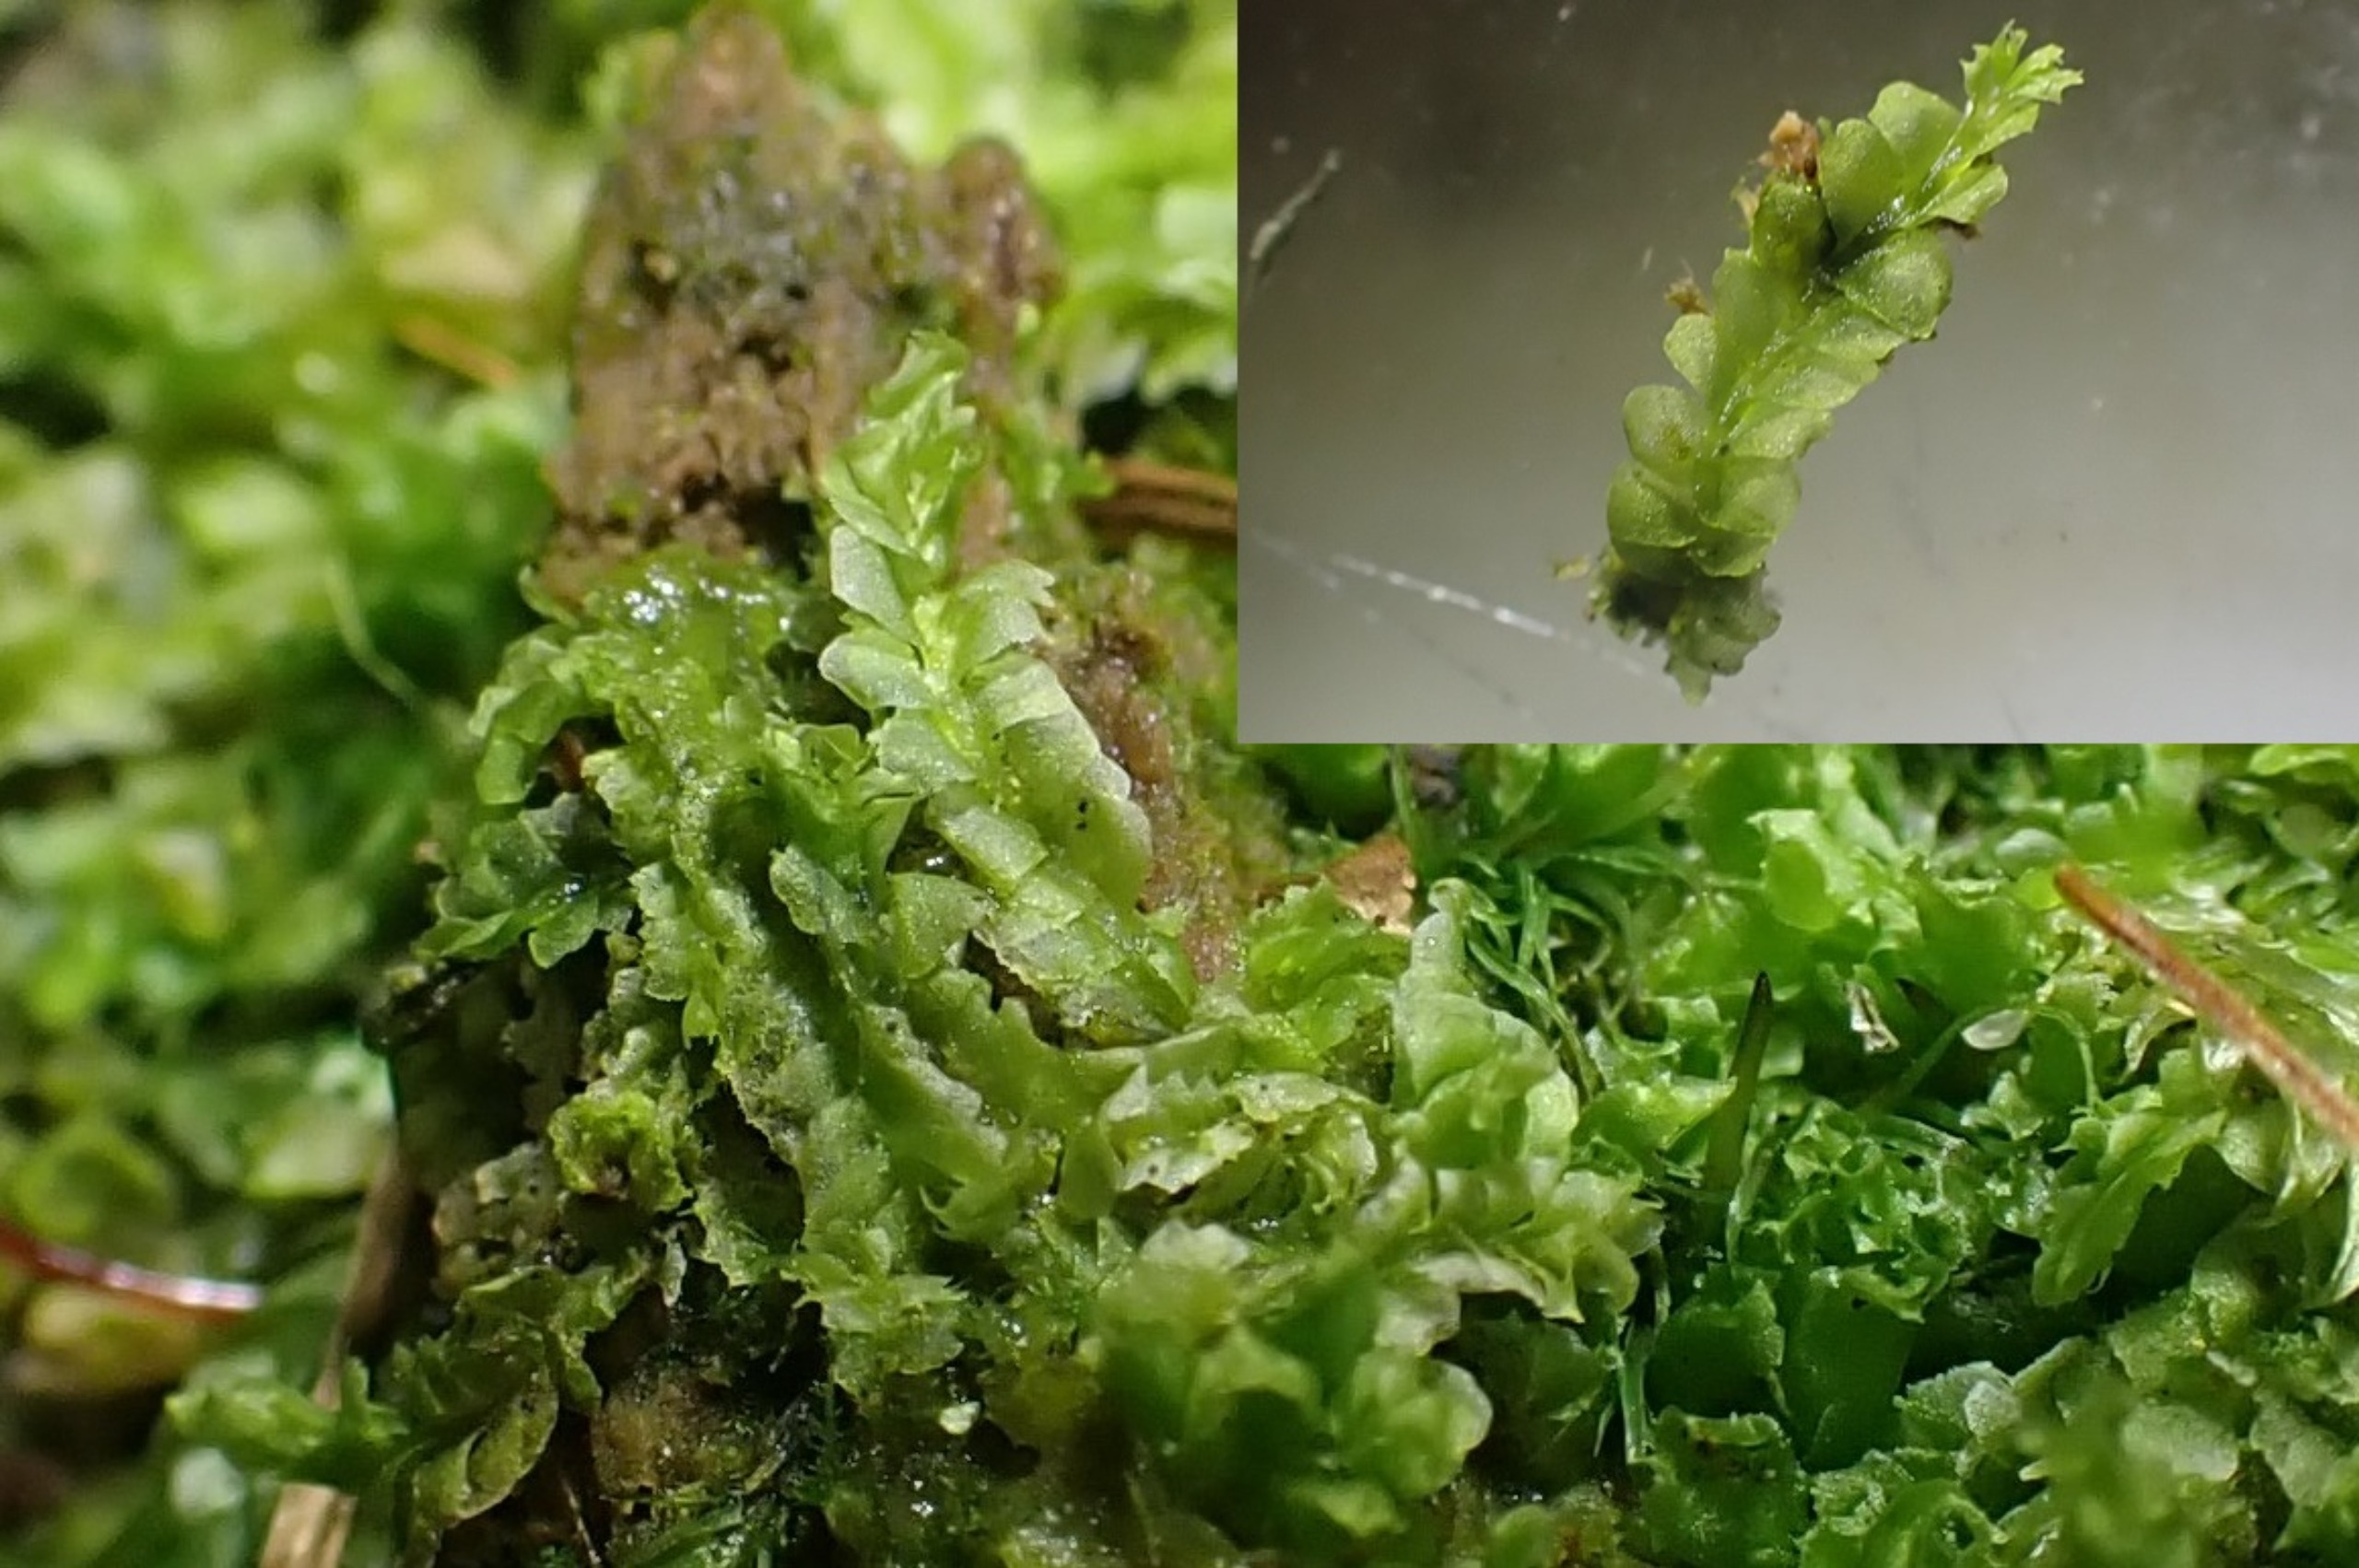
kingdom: Plantae
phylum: Marchantiophyta
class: Jungermanniopsida
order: Jungermanniales
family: Lophocoleaceae
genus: Lophocolea
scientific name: Lophocolea heterophylla
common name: Forskelligbladet kamsvøb
